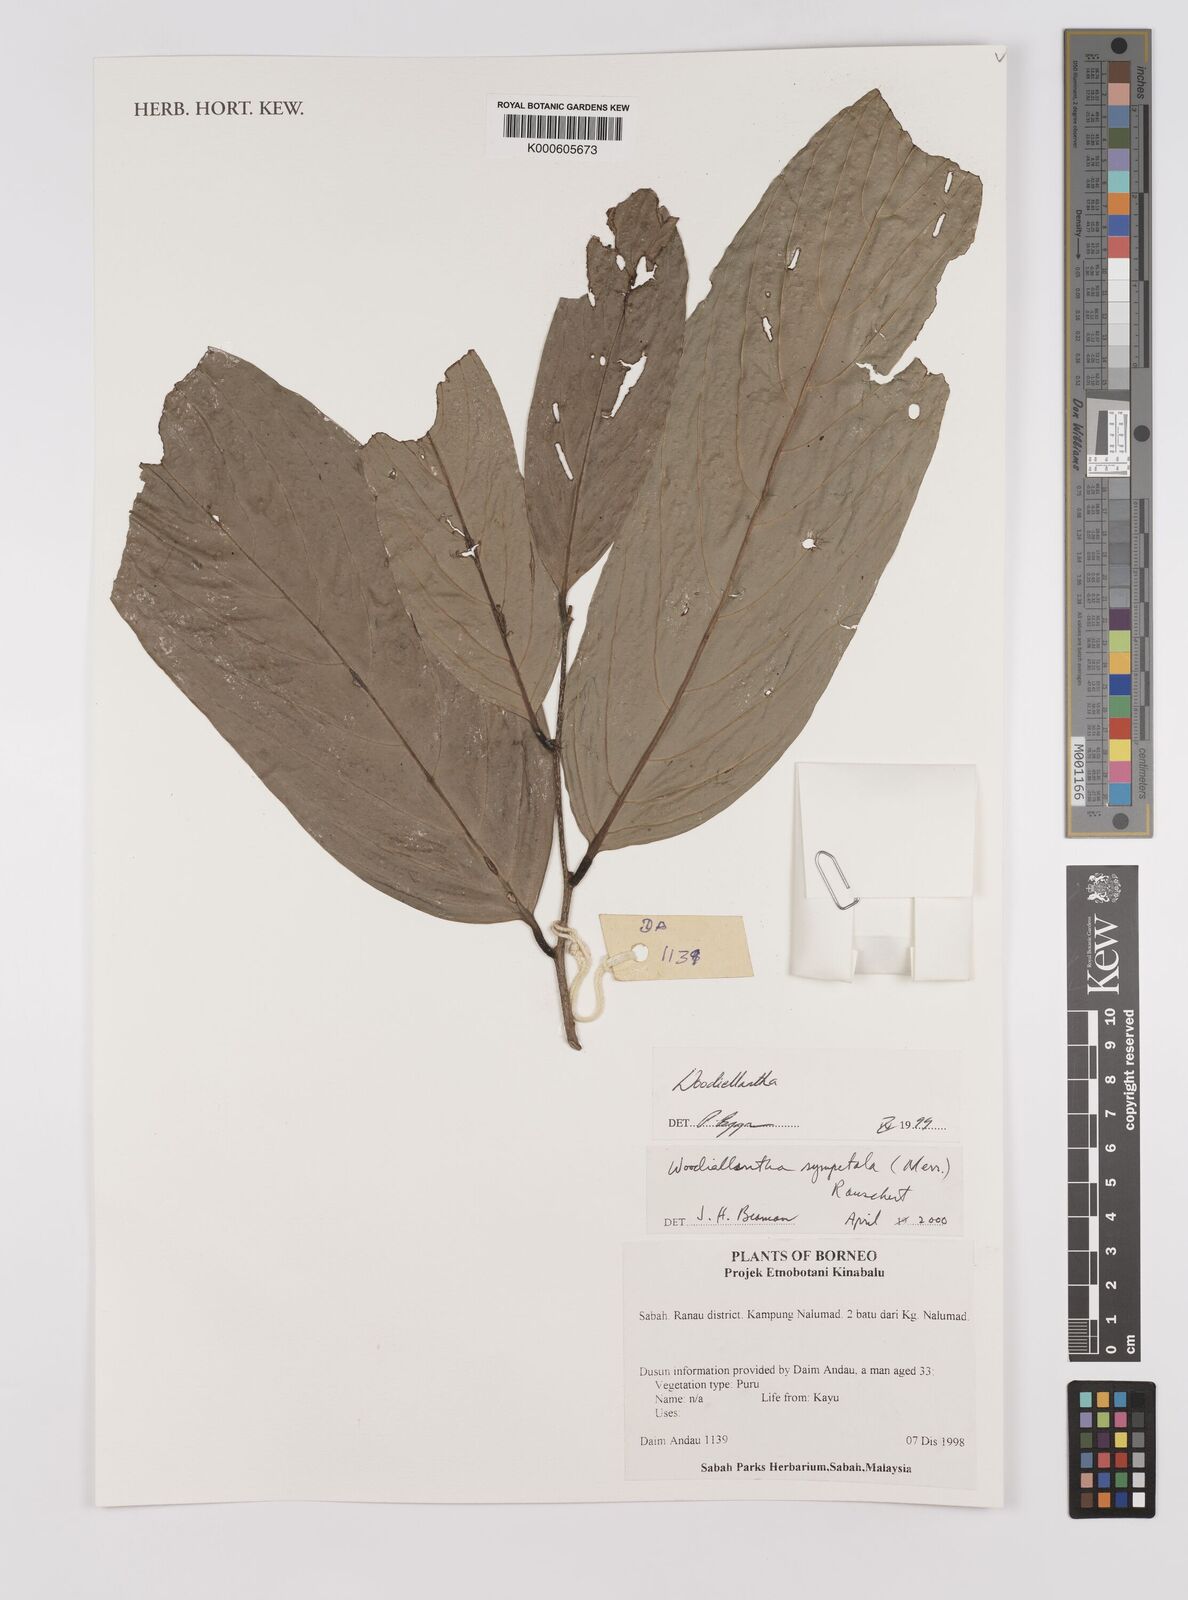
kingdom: Plantae
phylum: Tracheophyta
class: Magnoliopsida
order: Magnoliales
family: Annonaceae
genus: Woodiellantha
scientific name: Woodiellantha sympetala
